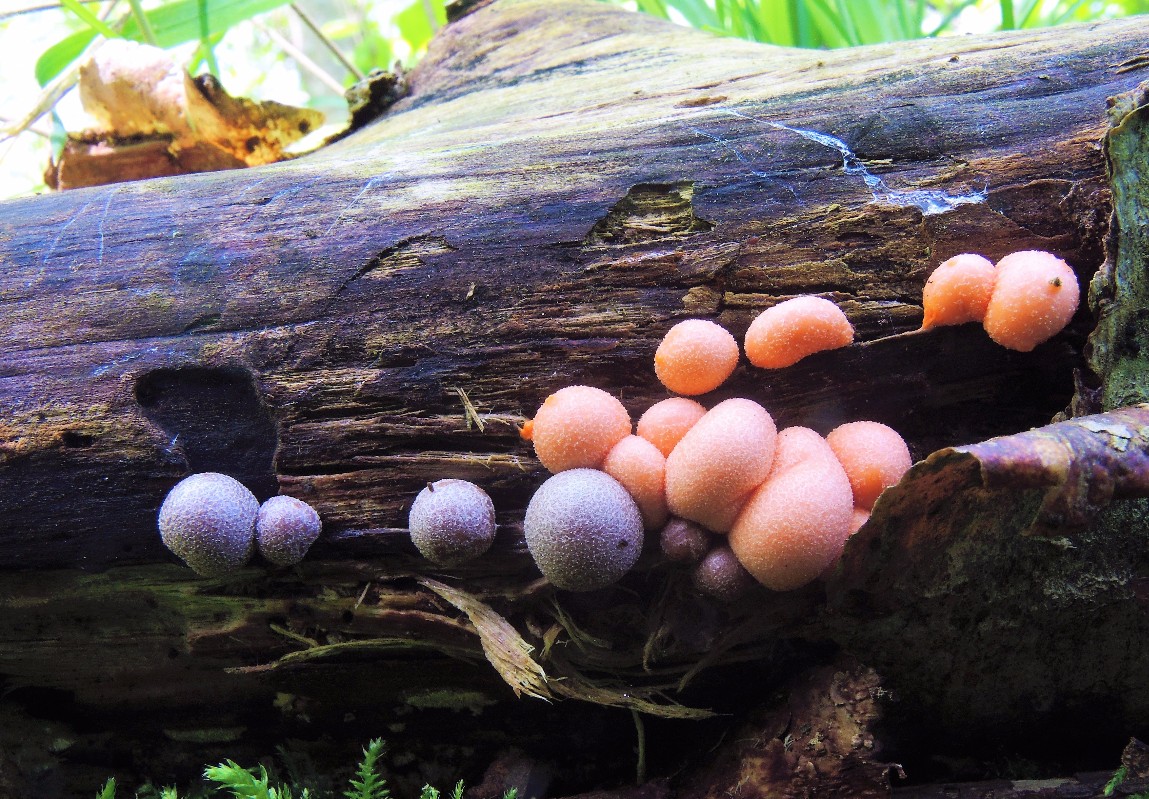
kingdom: Protozoa
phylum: Mycetozoa
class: Myxomycetes
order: Cribrariales
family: Tubiferaceae
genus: Lycogala
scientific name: Lycogala epidendrum
